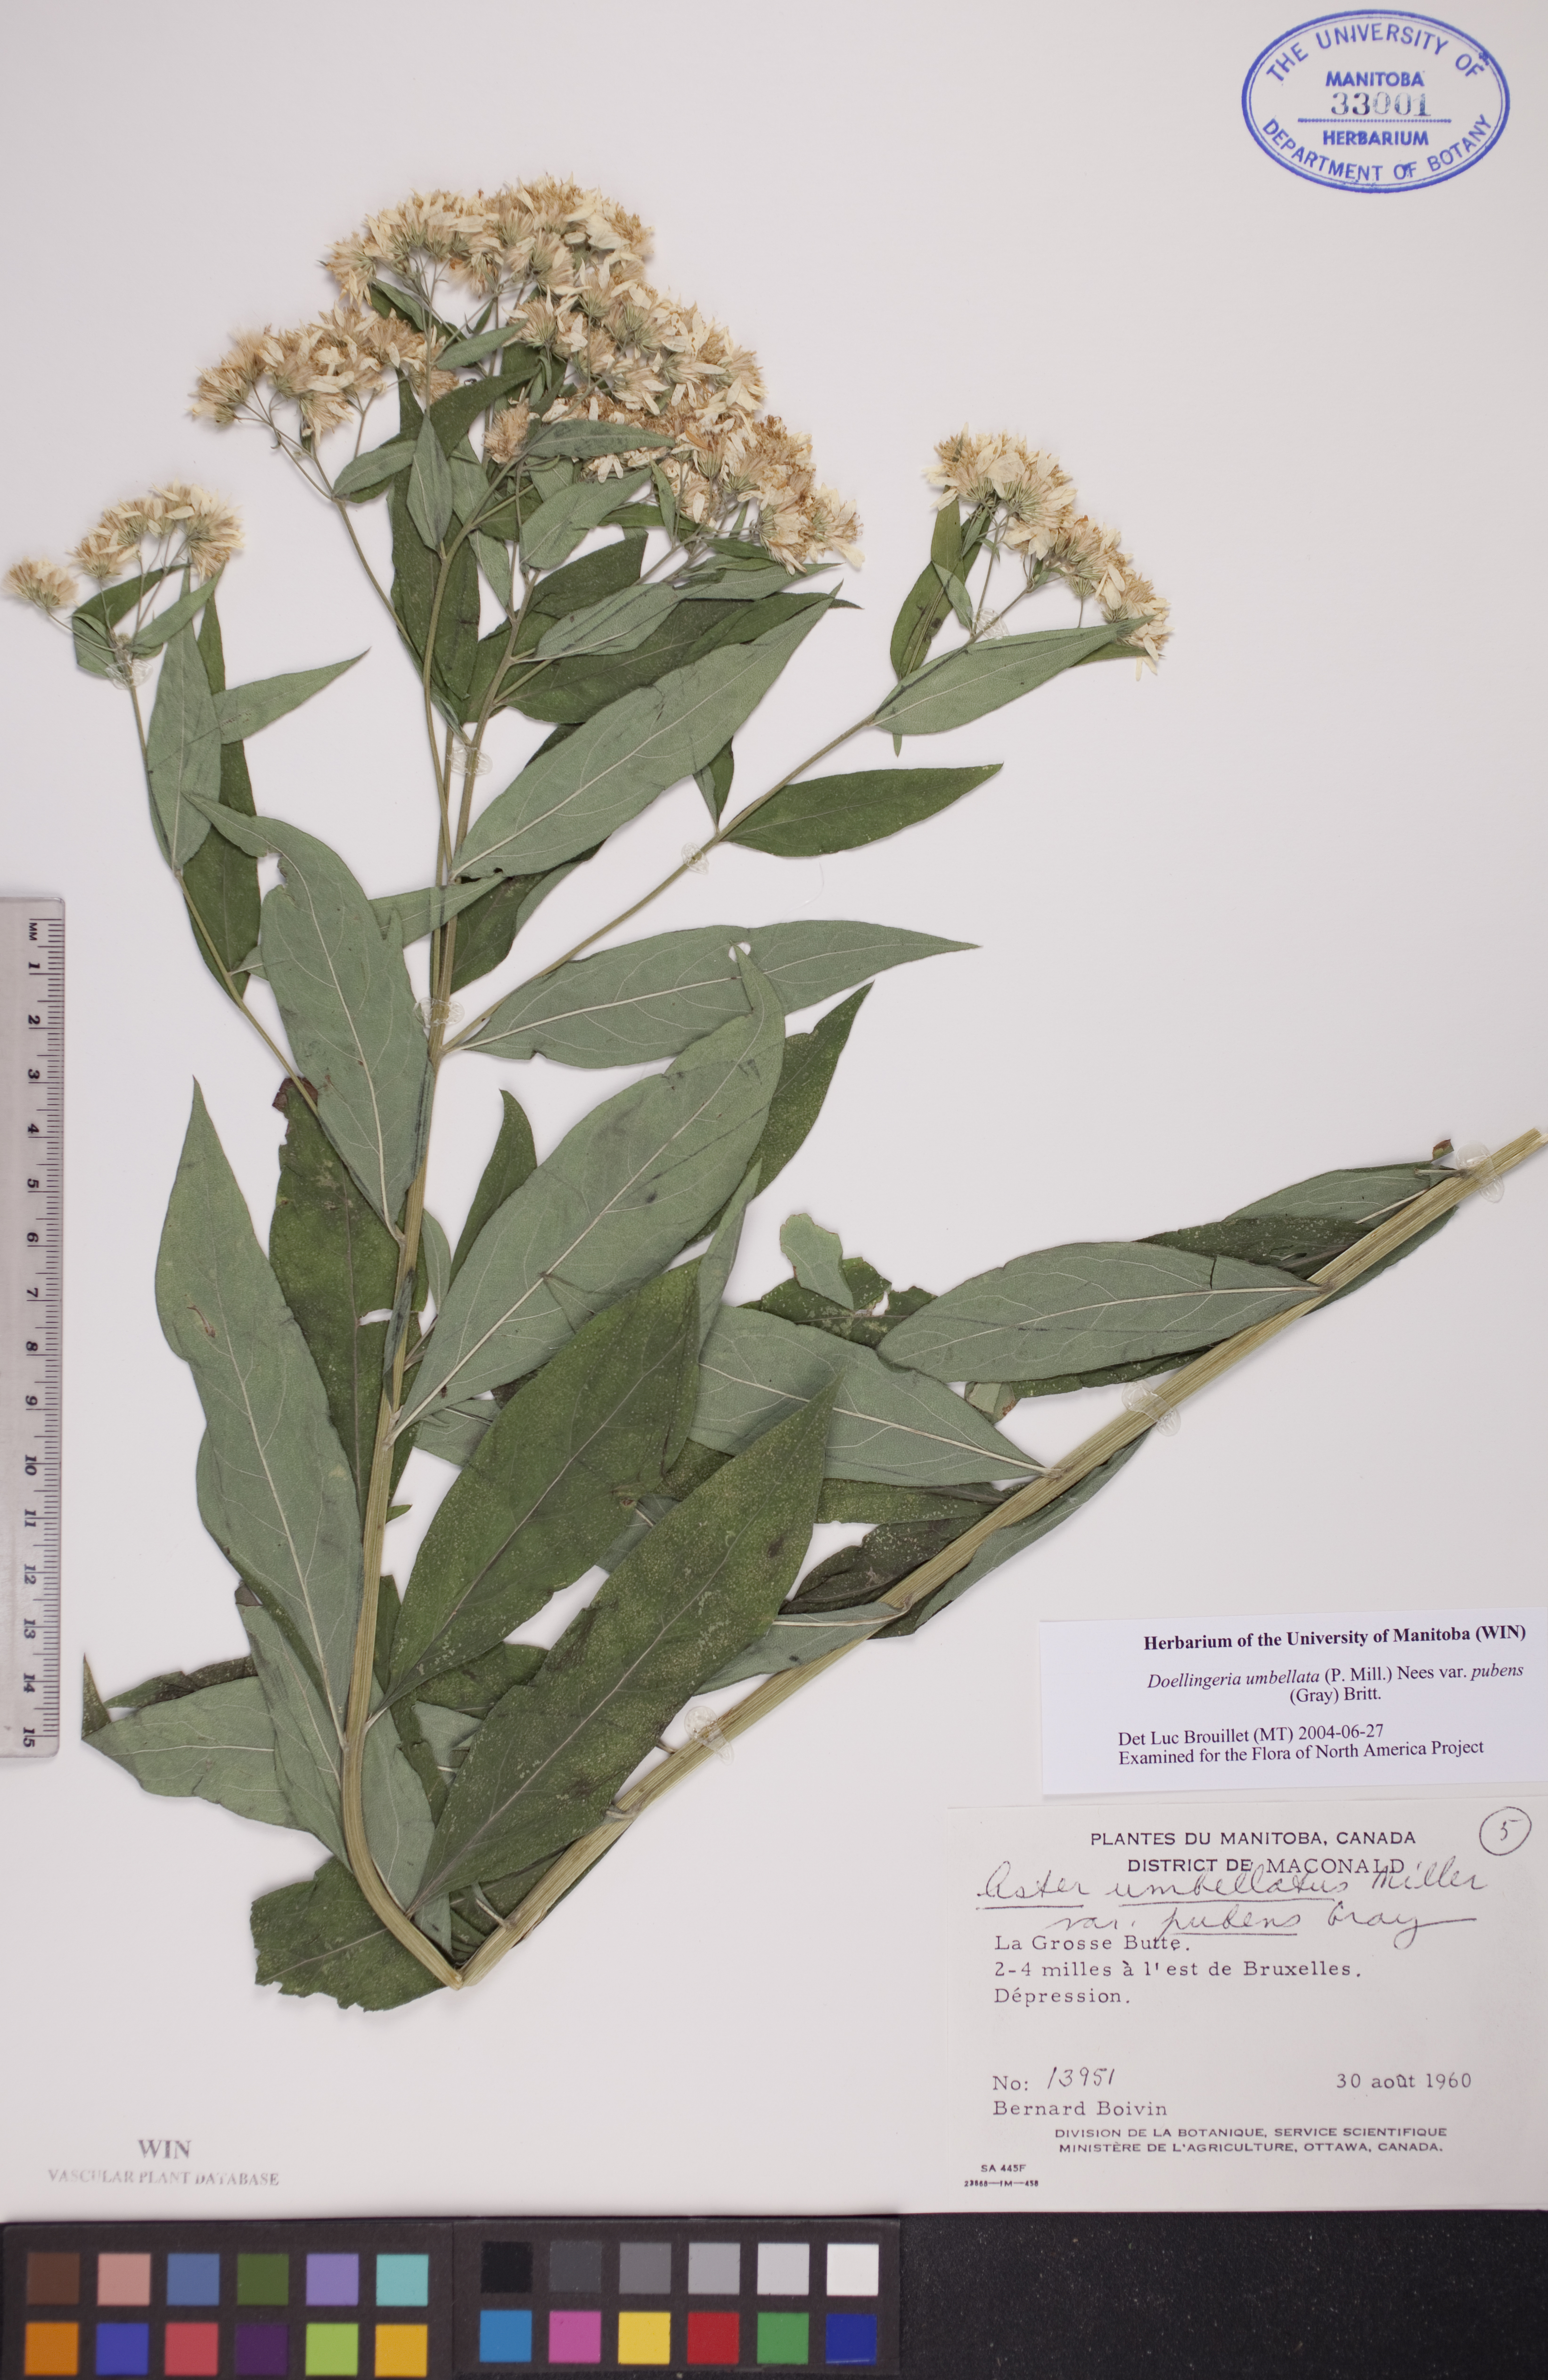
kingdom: Plantae
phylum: Tracheophyta
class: Magnoliopsida
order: Asterales
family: Asteraceae
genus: Doellingeria
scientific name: Doellingeria umbellata
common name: Flat-top white aster
